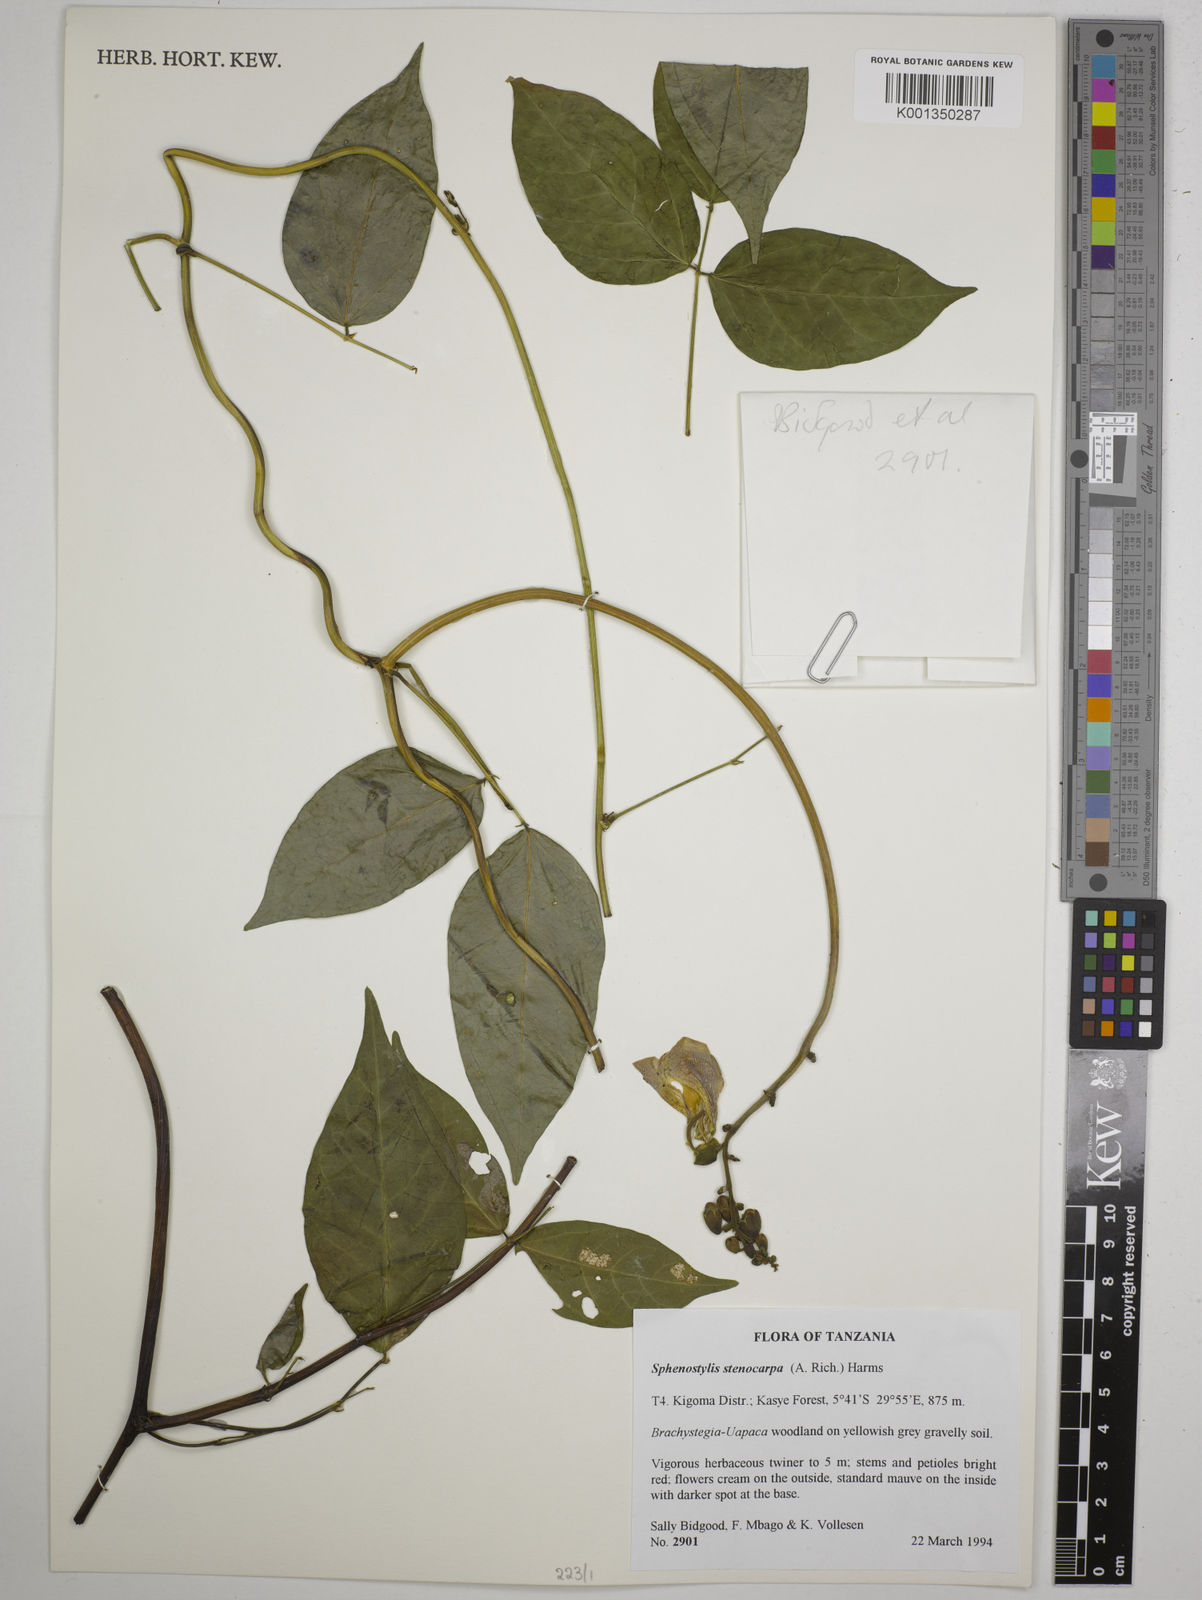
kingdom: Plantae
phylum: Tracheophyta
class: Magnoliopsida
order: Fabales
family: Fabaceae
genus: Sphenostylis
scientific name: Sphenostylis stenocarpa
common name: Yam-pea
